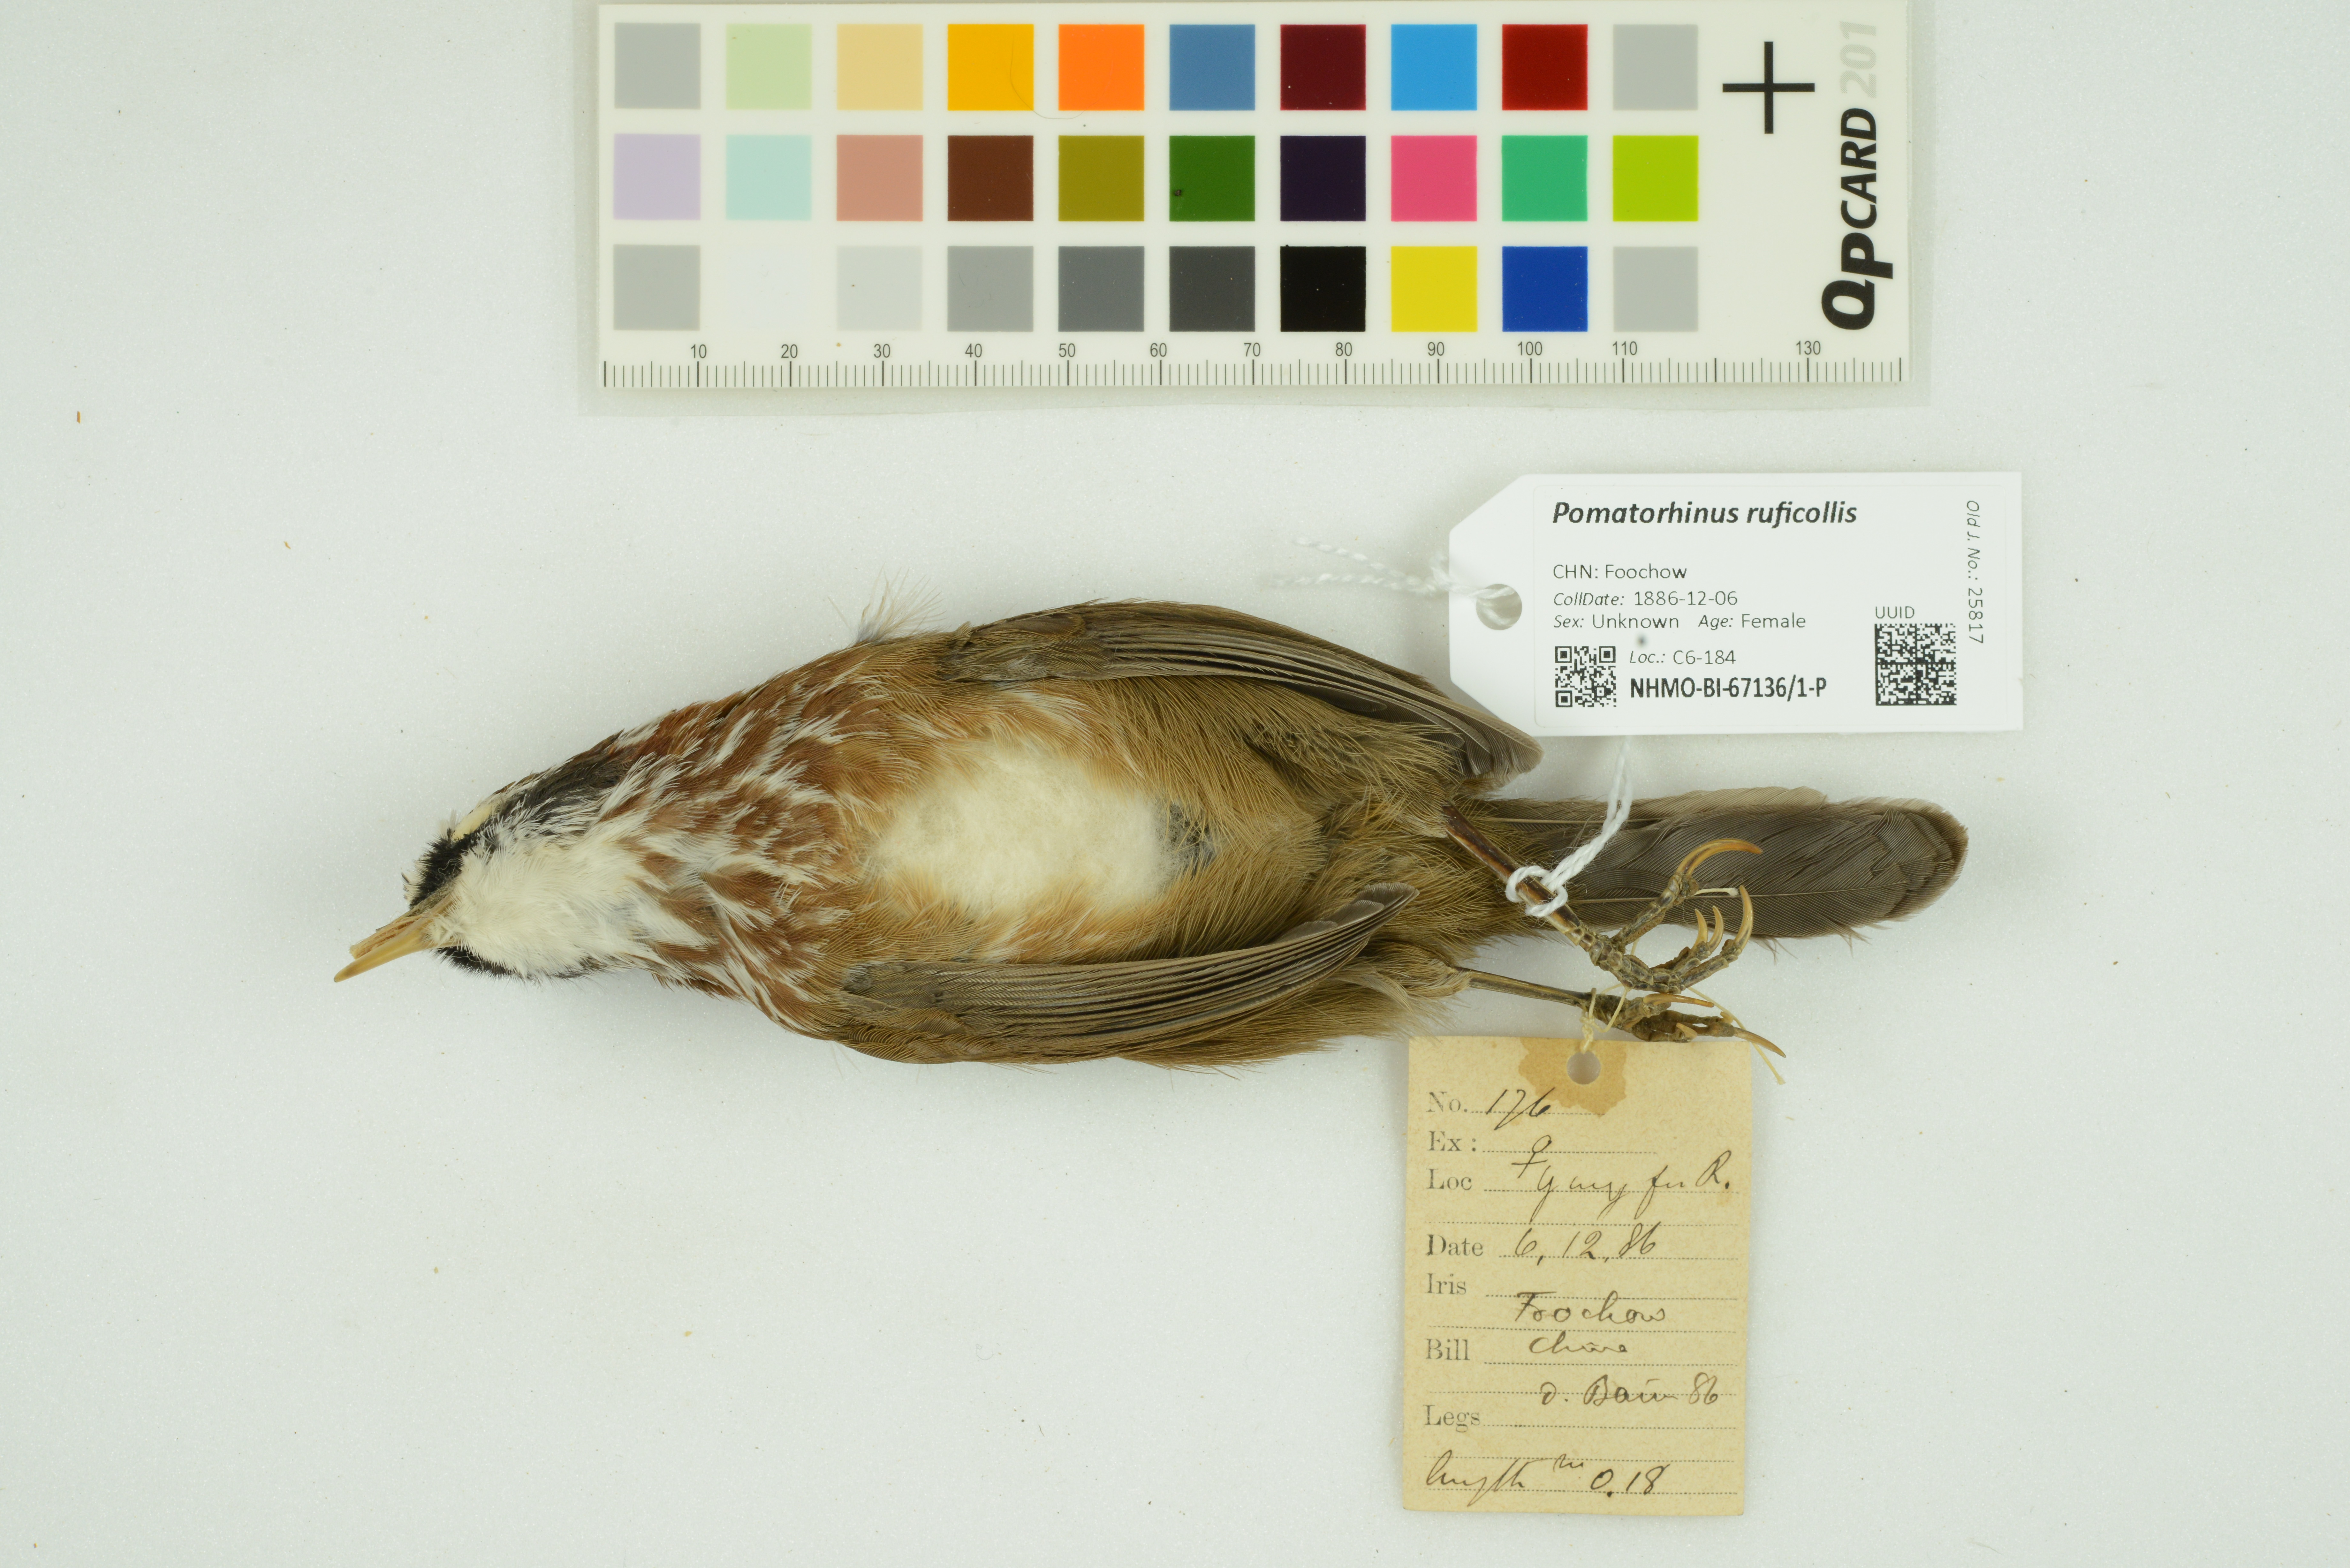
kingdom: Animalia
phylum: Chordata
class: Aves
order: Passeriformes
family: Timaliidae
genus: Pomatorhinus
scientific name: Pomatorhinus ruficollis
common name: Streak-breasted scimitar babbler
